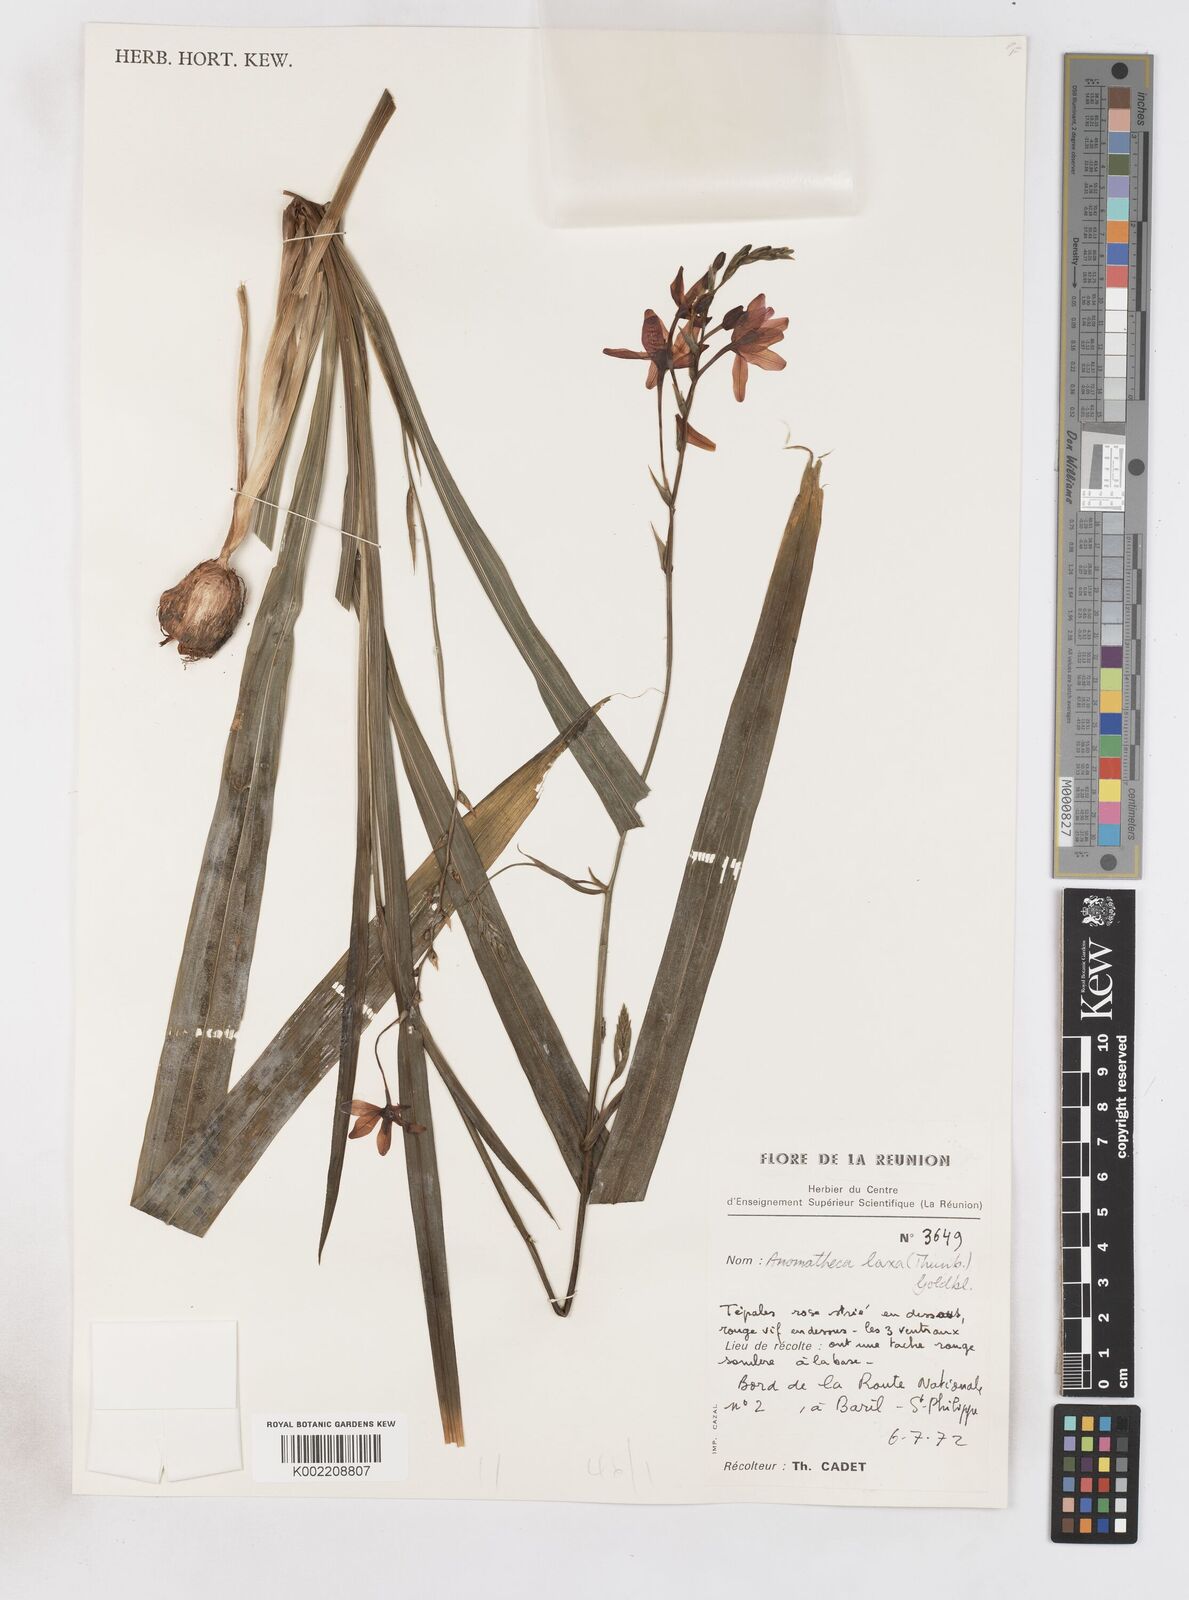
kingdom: Plantae
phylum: Tracheophyta
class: Liliopsida
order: Asparagales
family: Iridaceae
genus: Freesia
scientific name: Freesia laxa
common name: False freesia
